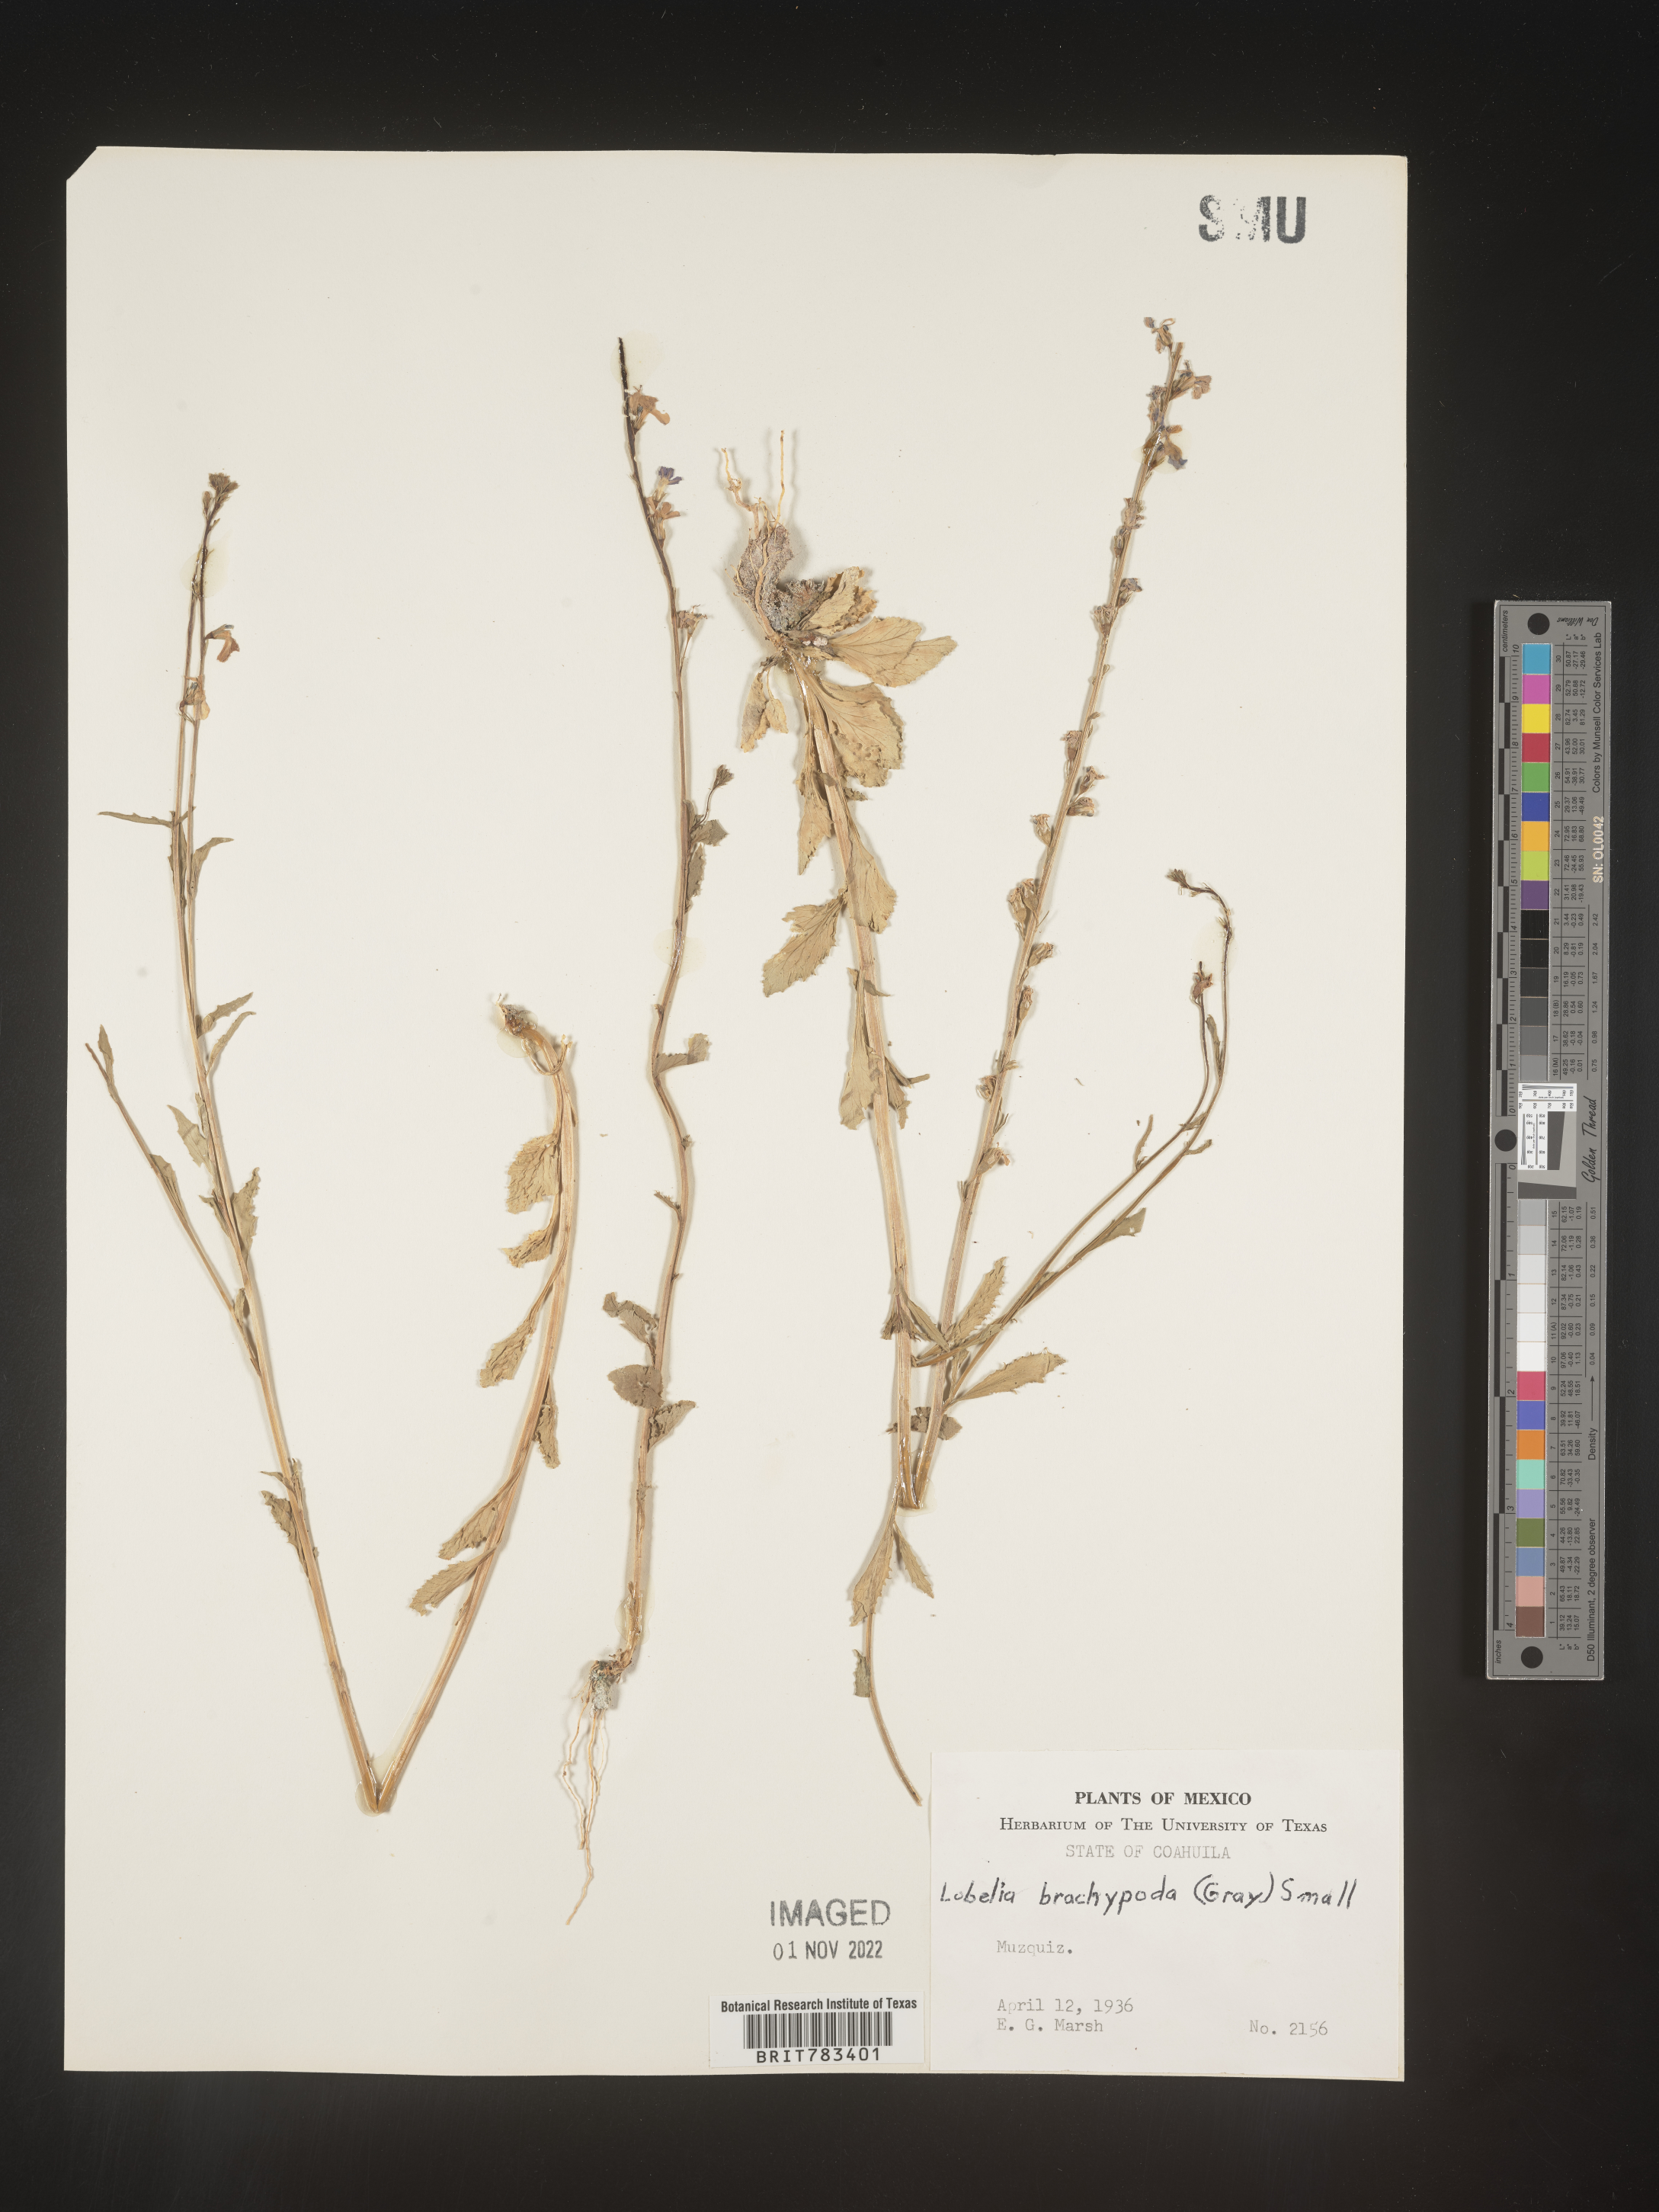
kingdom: Plantae
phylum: Tracheophyta
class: Magnoliopsida
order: Asterales
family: Campanulaceae
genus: Lobelia
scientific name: Lobelia
